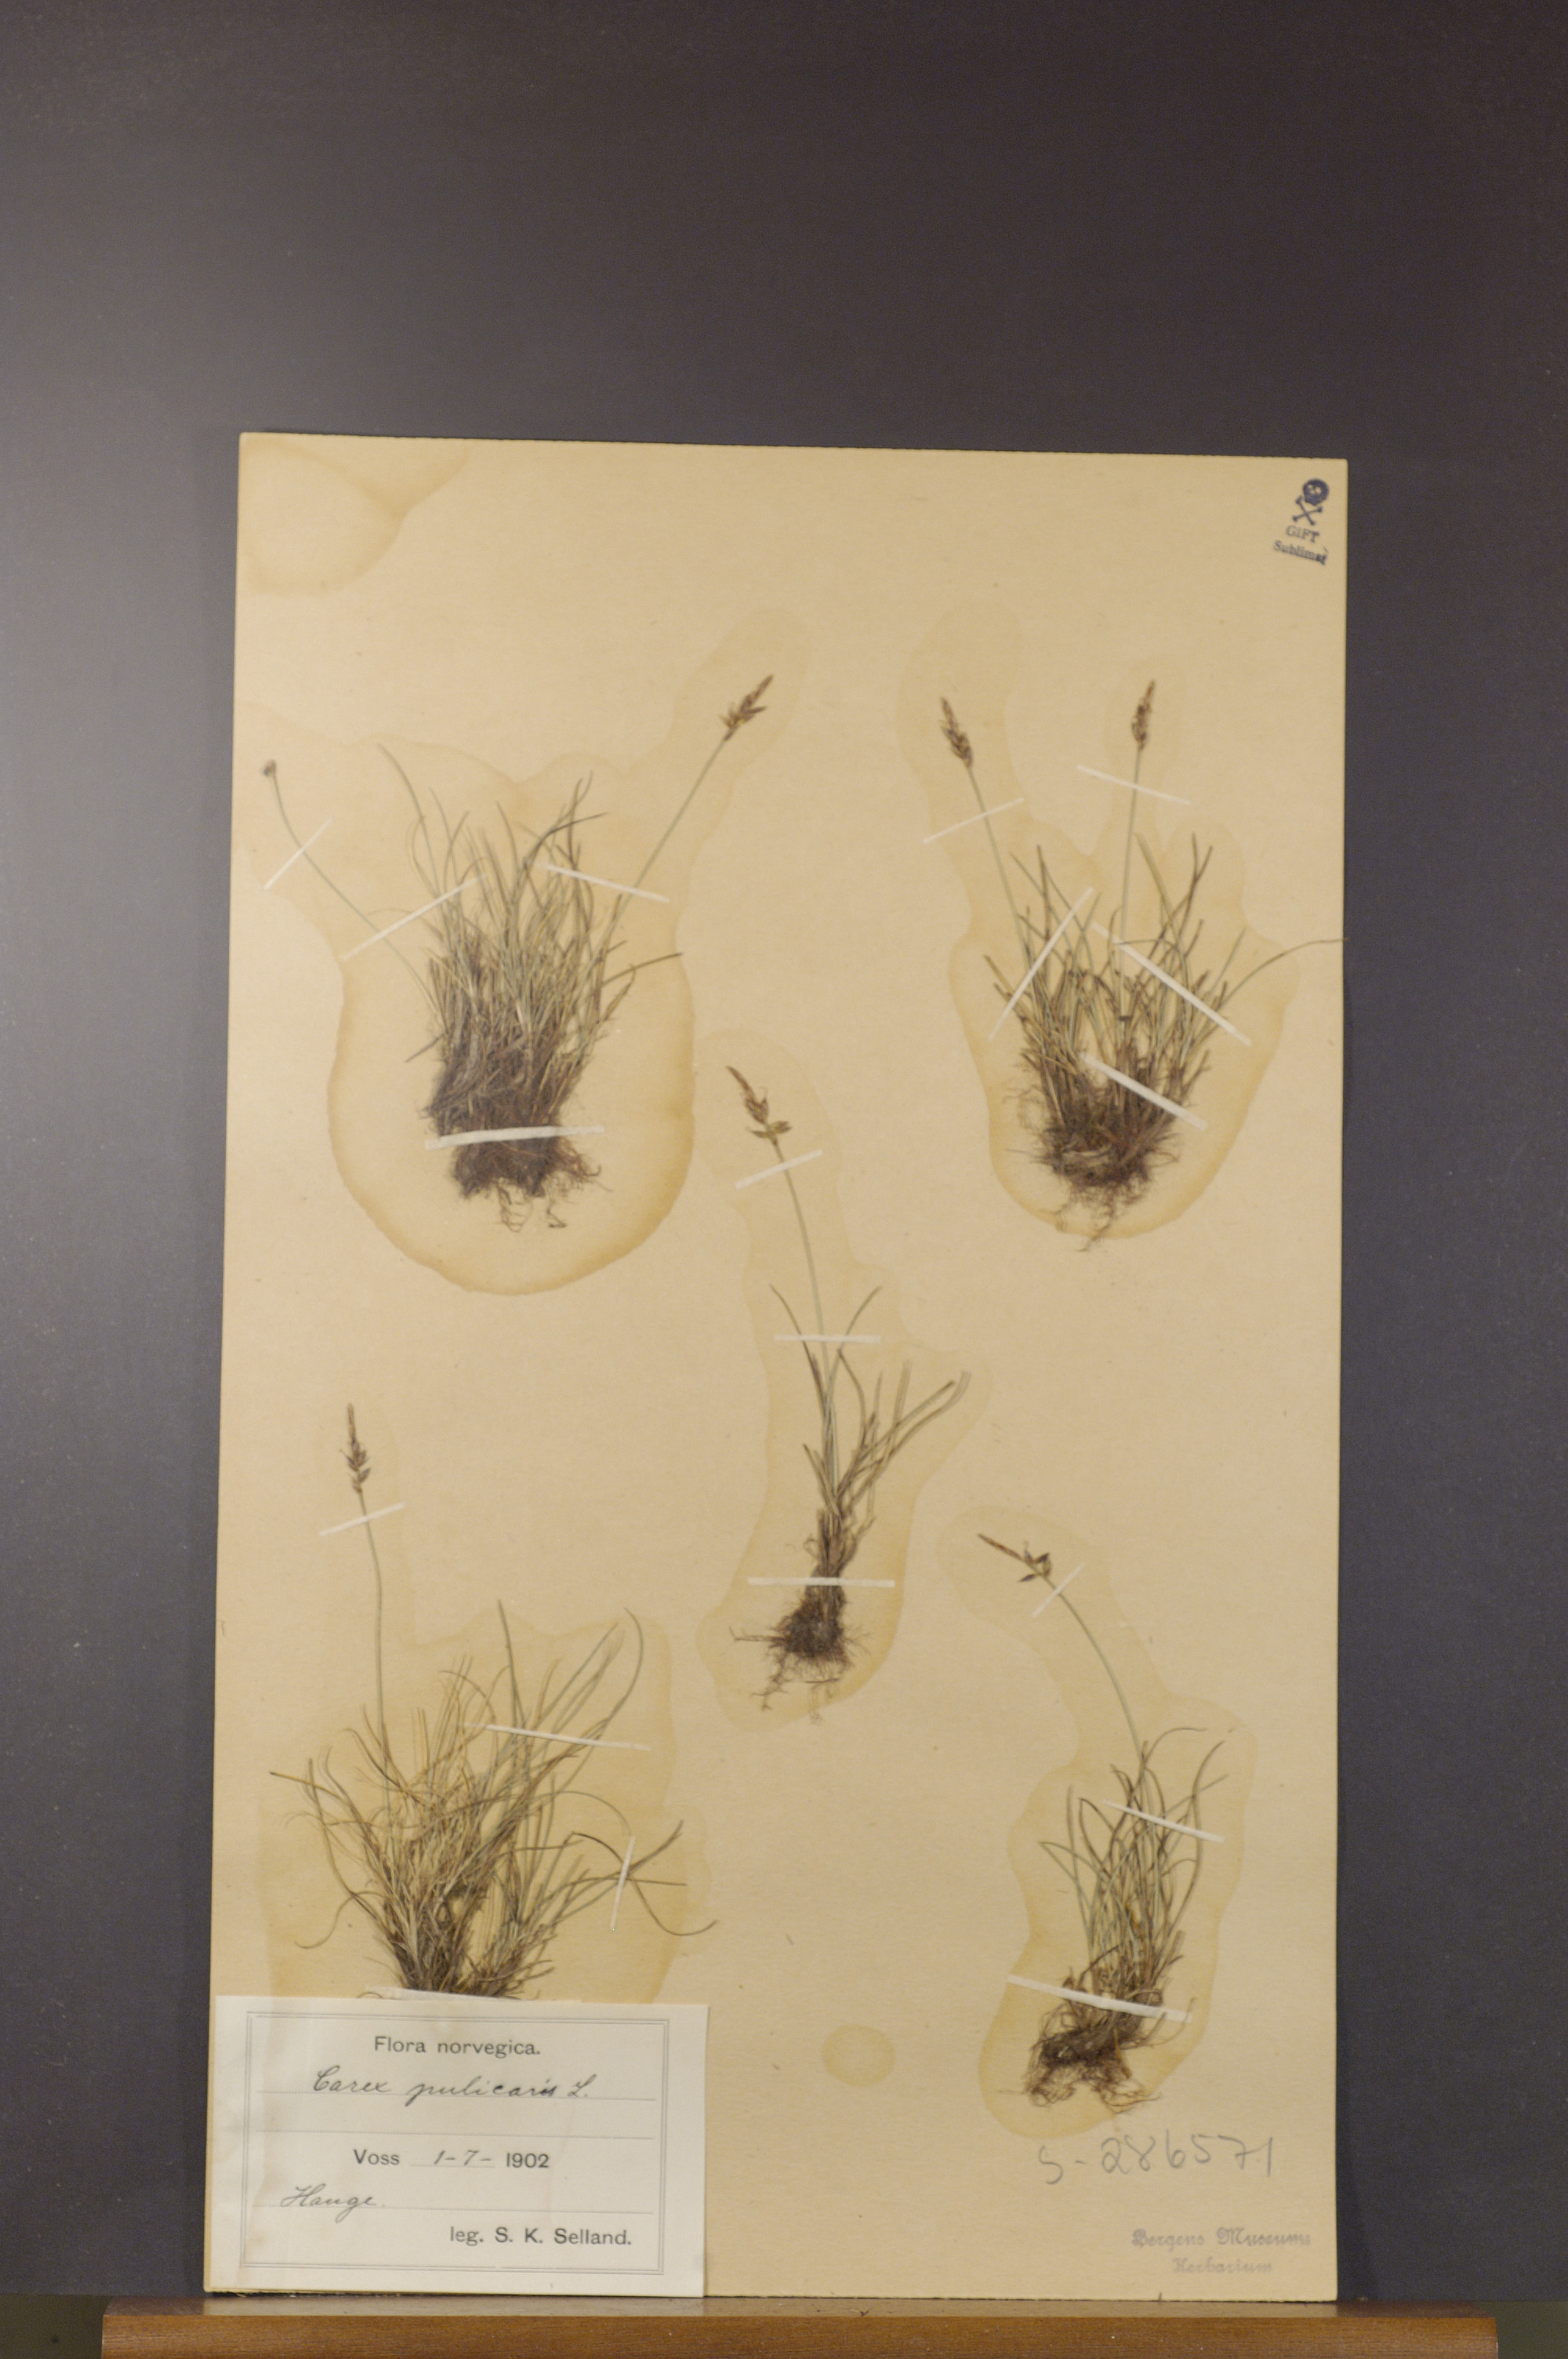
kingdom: Plantae
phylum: Tracheophyta
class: Liliopsida
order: Poales
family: Cyperaceae
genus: Carex
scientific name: Carex pulicaris
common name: Flea sedge
